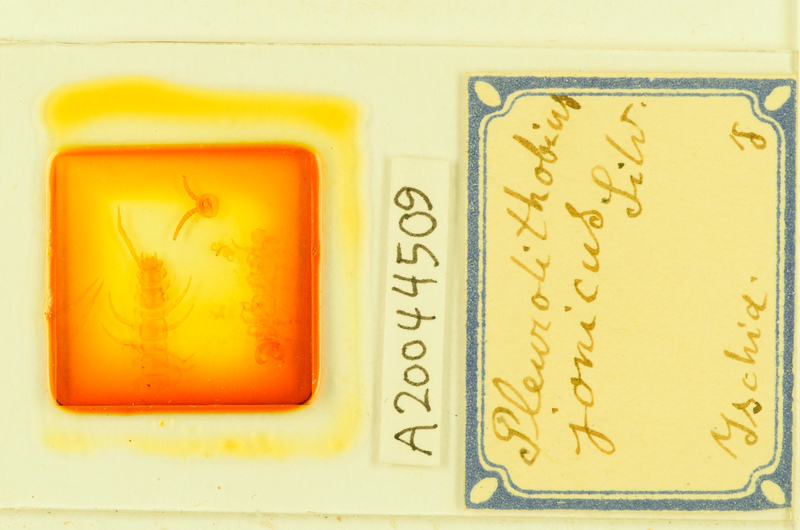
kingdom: Animalia
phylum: Arthropoda
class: Chilopoda
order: Lithobiomorpha
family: Lithobiidae
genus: Pleurolithobius
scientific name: Pleurolithobius
